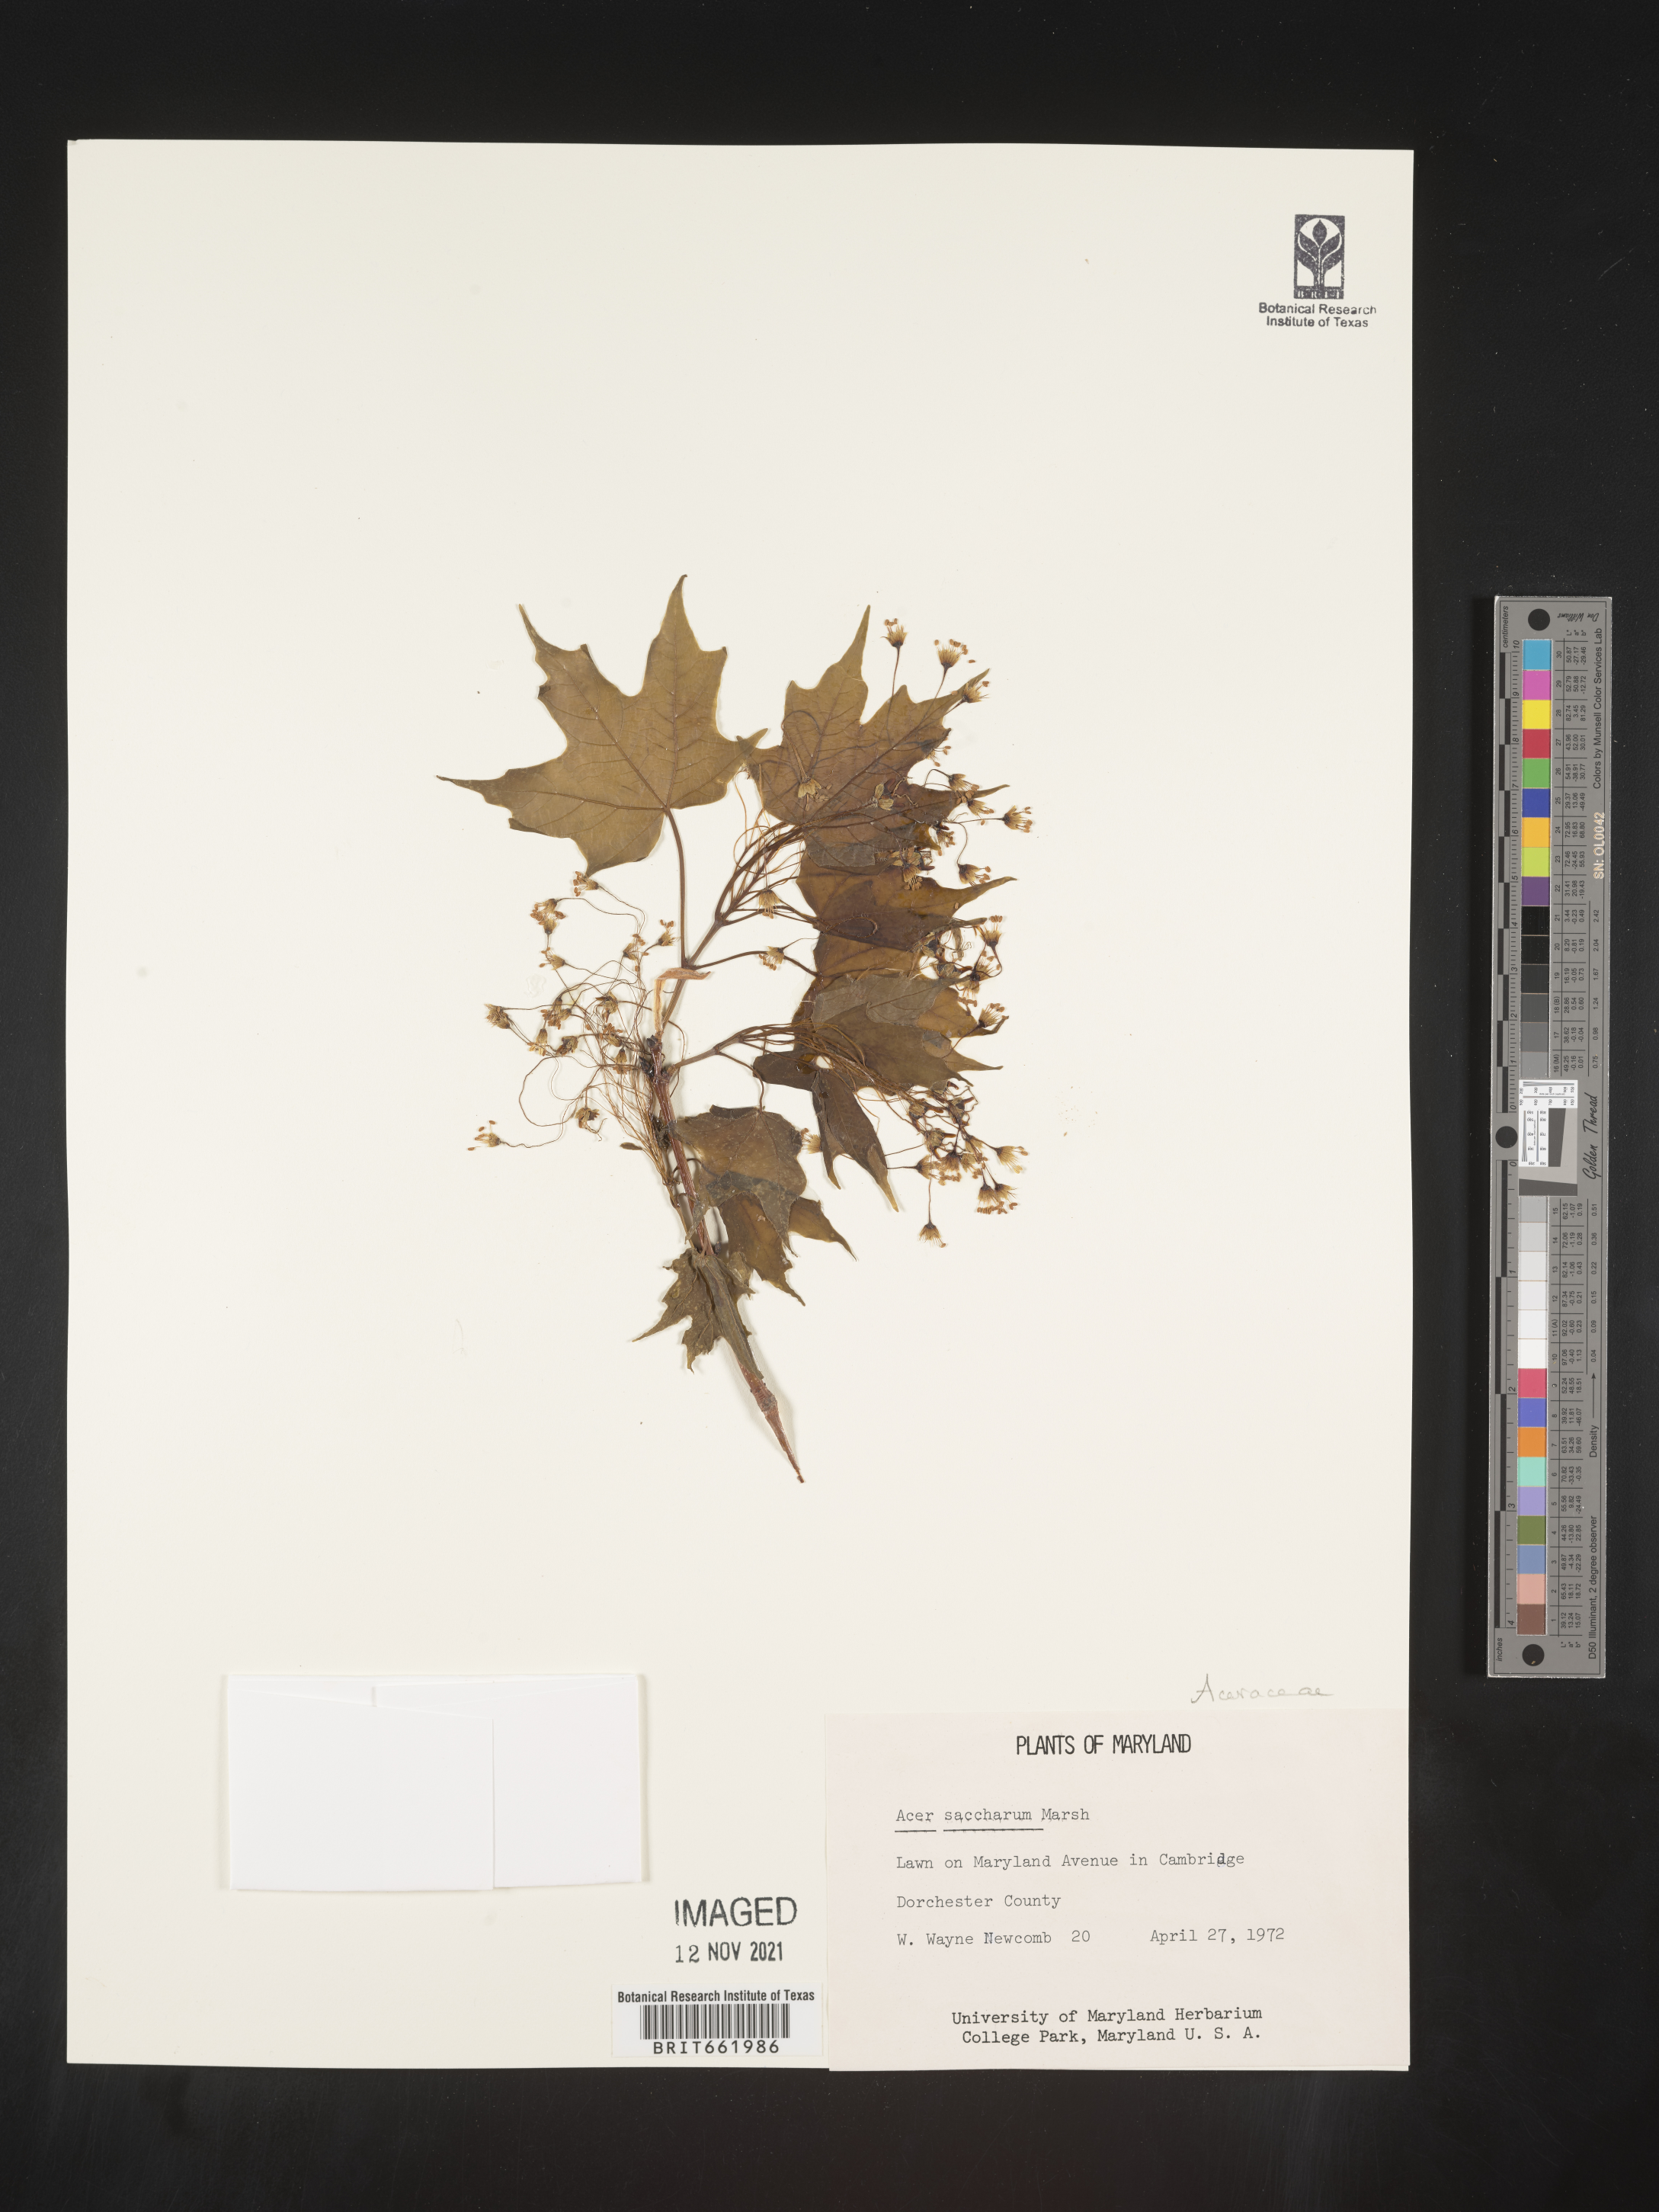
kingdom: Plantae
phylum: Tracheophyta
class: Magnoliopsida
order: Sapindales
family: Sapindaceae
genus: Acer
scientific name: Acer saccharum
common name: Sugar maple
